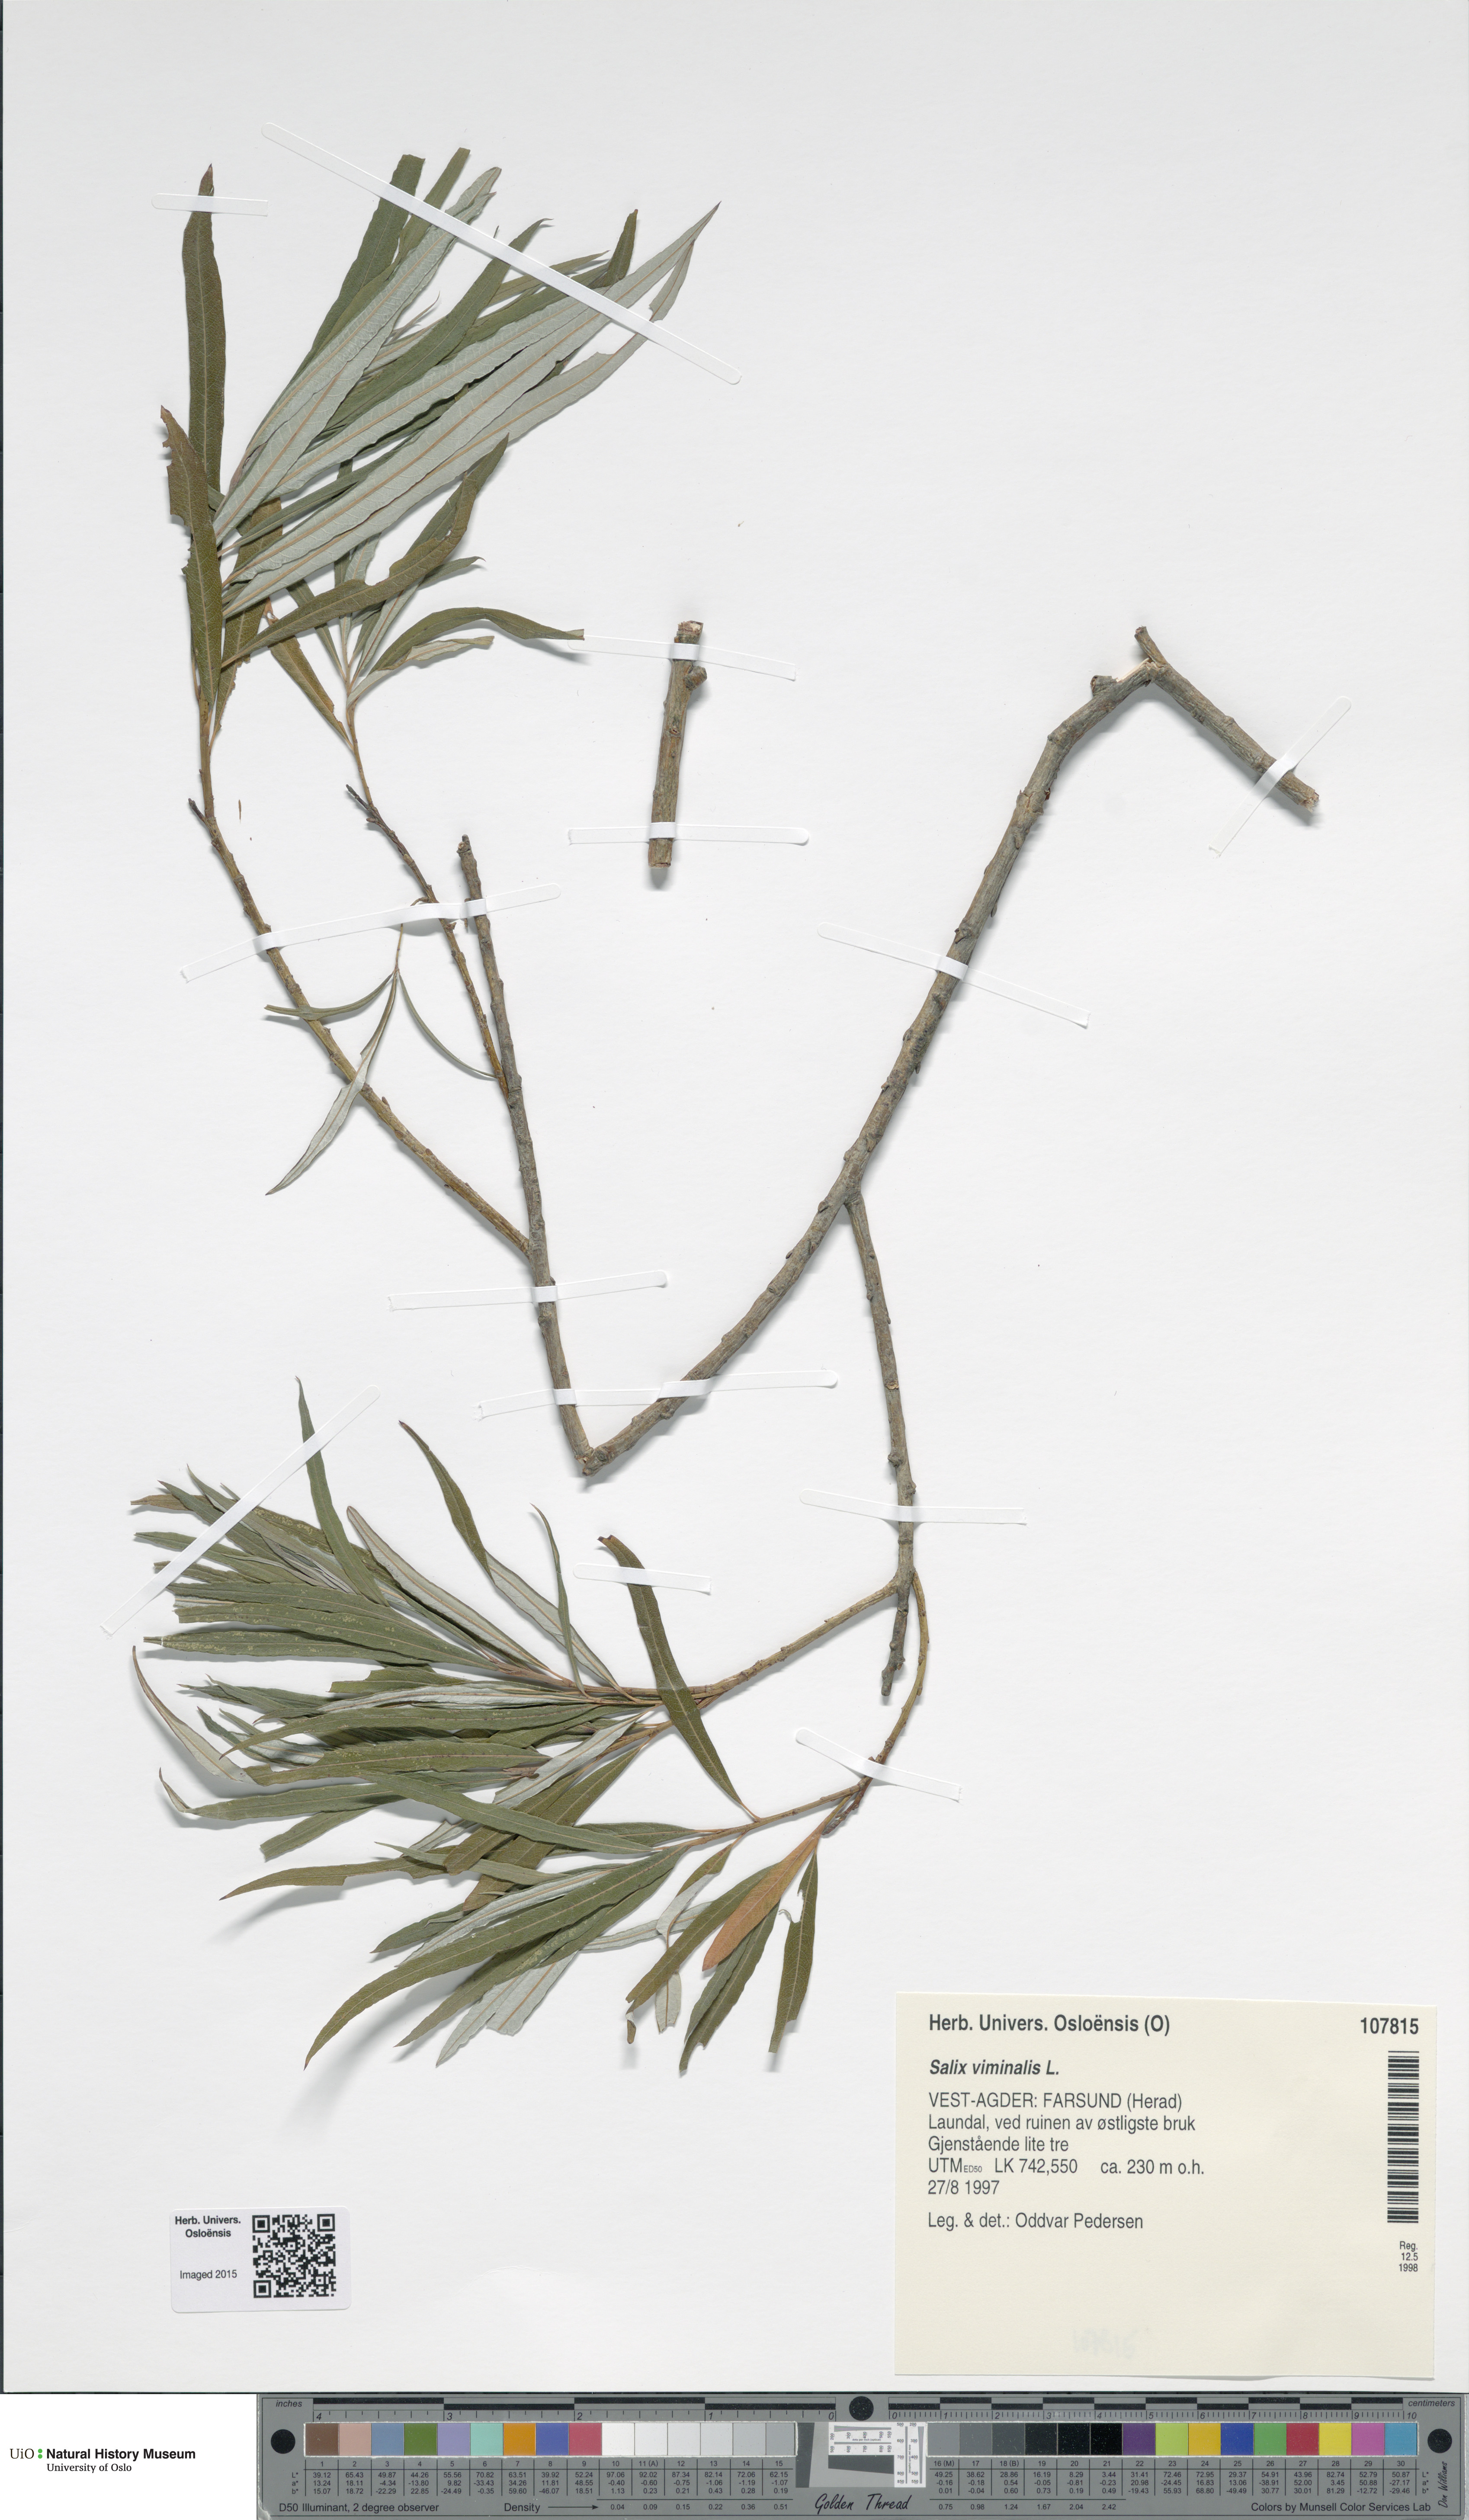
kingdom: Plantae
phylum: Tracheophyta
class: Magnoliopsida
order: Malpighiales
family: Salicaceae
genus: Salix
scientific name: Salix viminalis
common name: Osier
